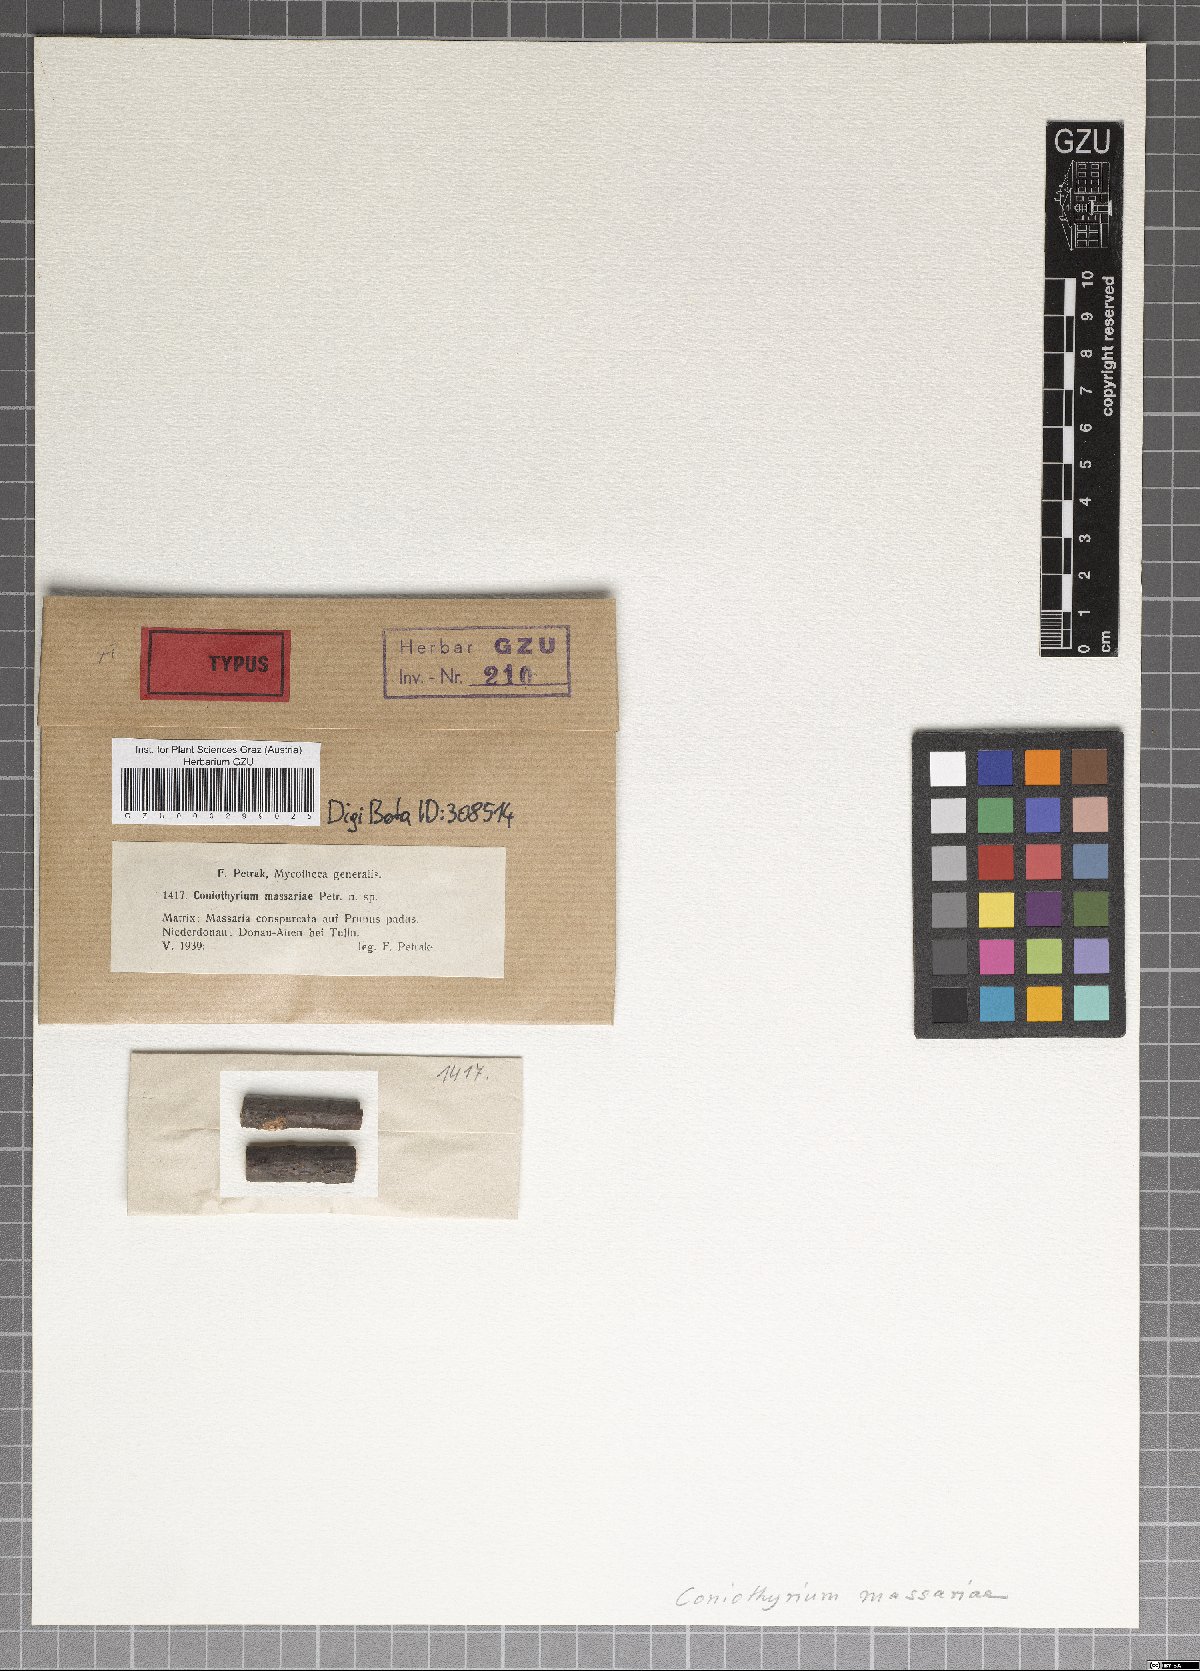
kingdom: Fungi
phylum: Ascomycota
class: Dothideomycetes
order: Pleosporales
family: Coniothyriaceae
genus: Coniothyrium
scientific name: Coniothyrium massariae
